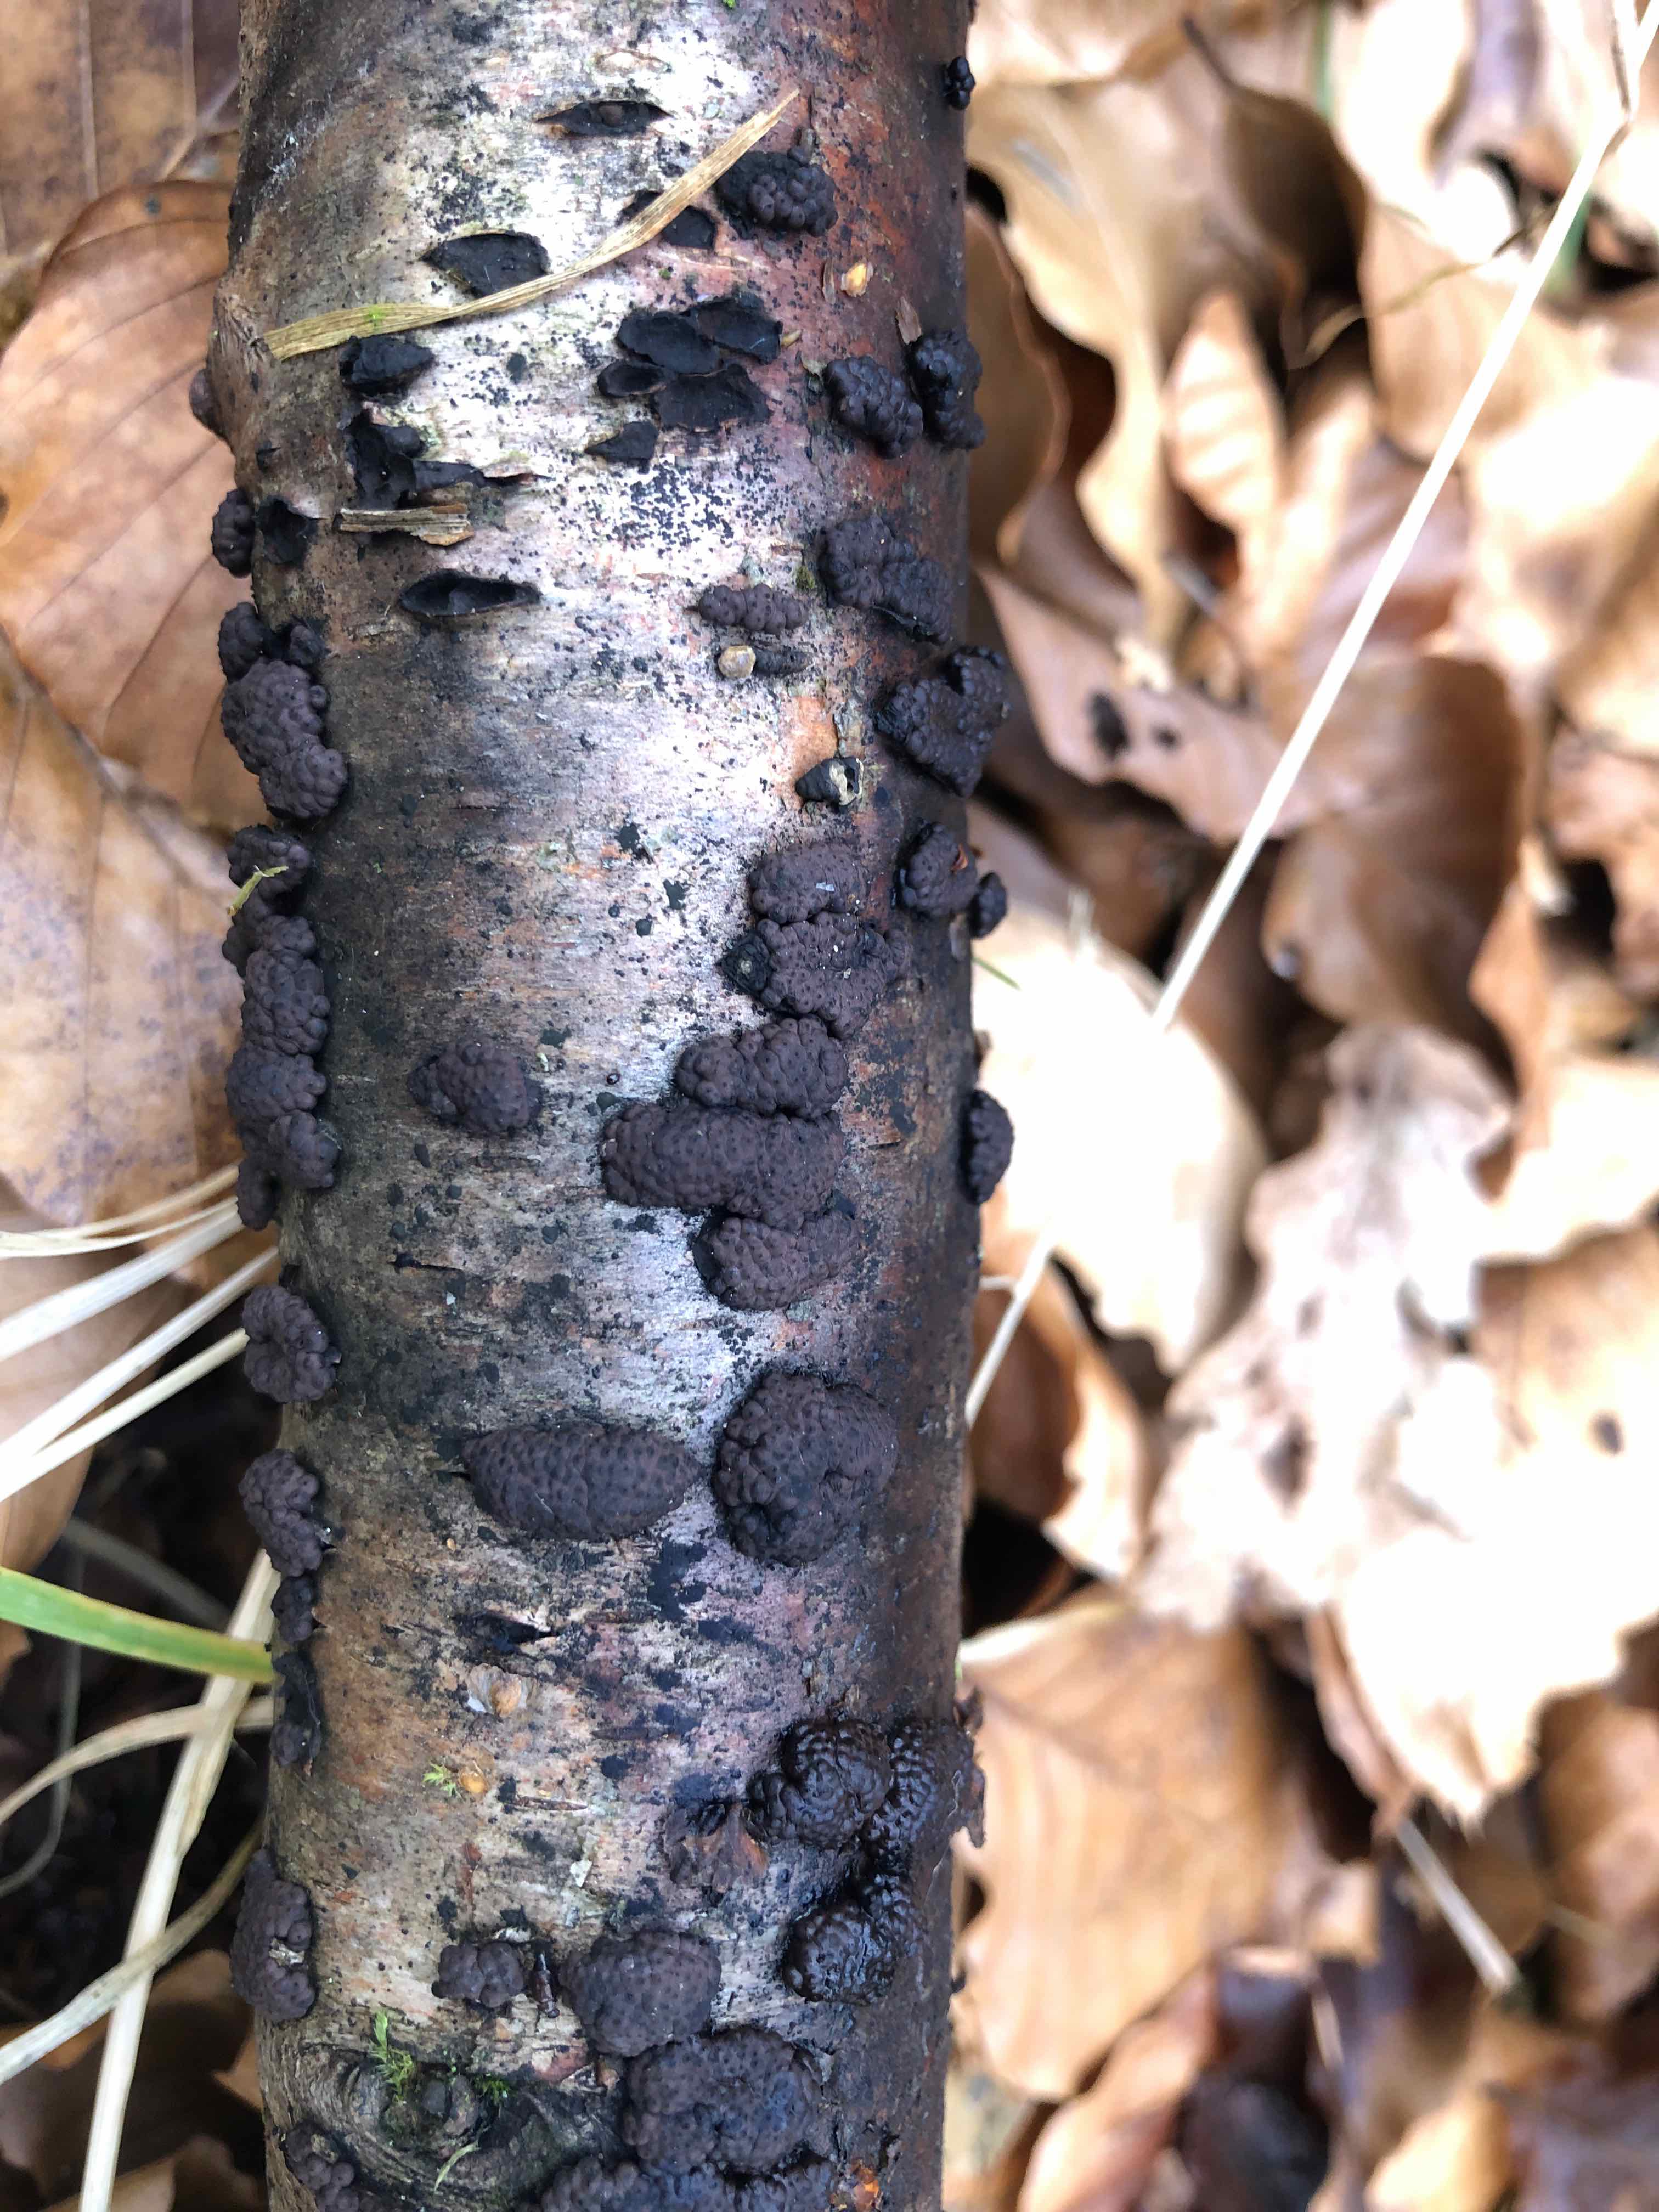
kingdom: Fungi
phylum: Ascomycota
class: Sordariomycetes
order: Xylariales
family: Hypoxylaceae
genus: Jackrogersella
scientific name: Jackrogersella multiformis
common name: foranderlig kulbær
